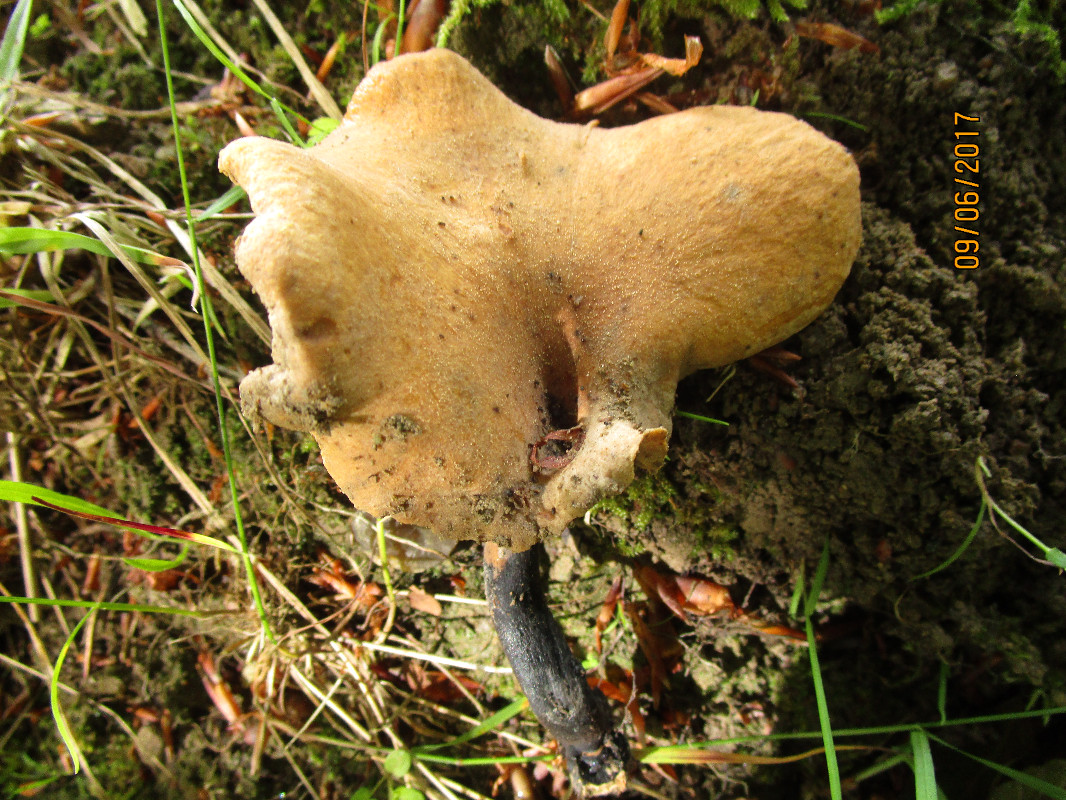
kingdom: Fungi
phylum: Basidiomycota
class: Agaricomycetes
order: Polyporales
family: Polyporaceae
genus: Cerioporus
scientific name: Cerioporus varius
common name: foranderlig stilkporesvamp
